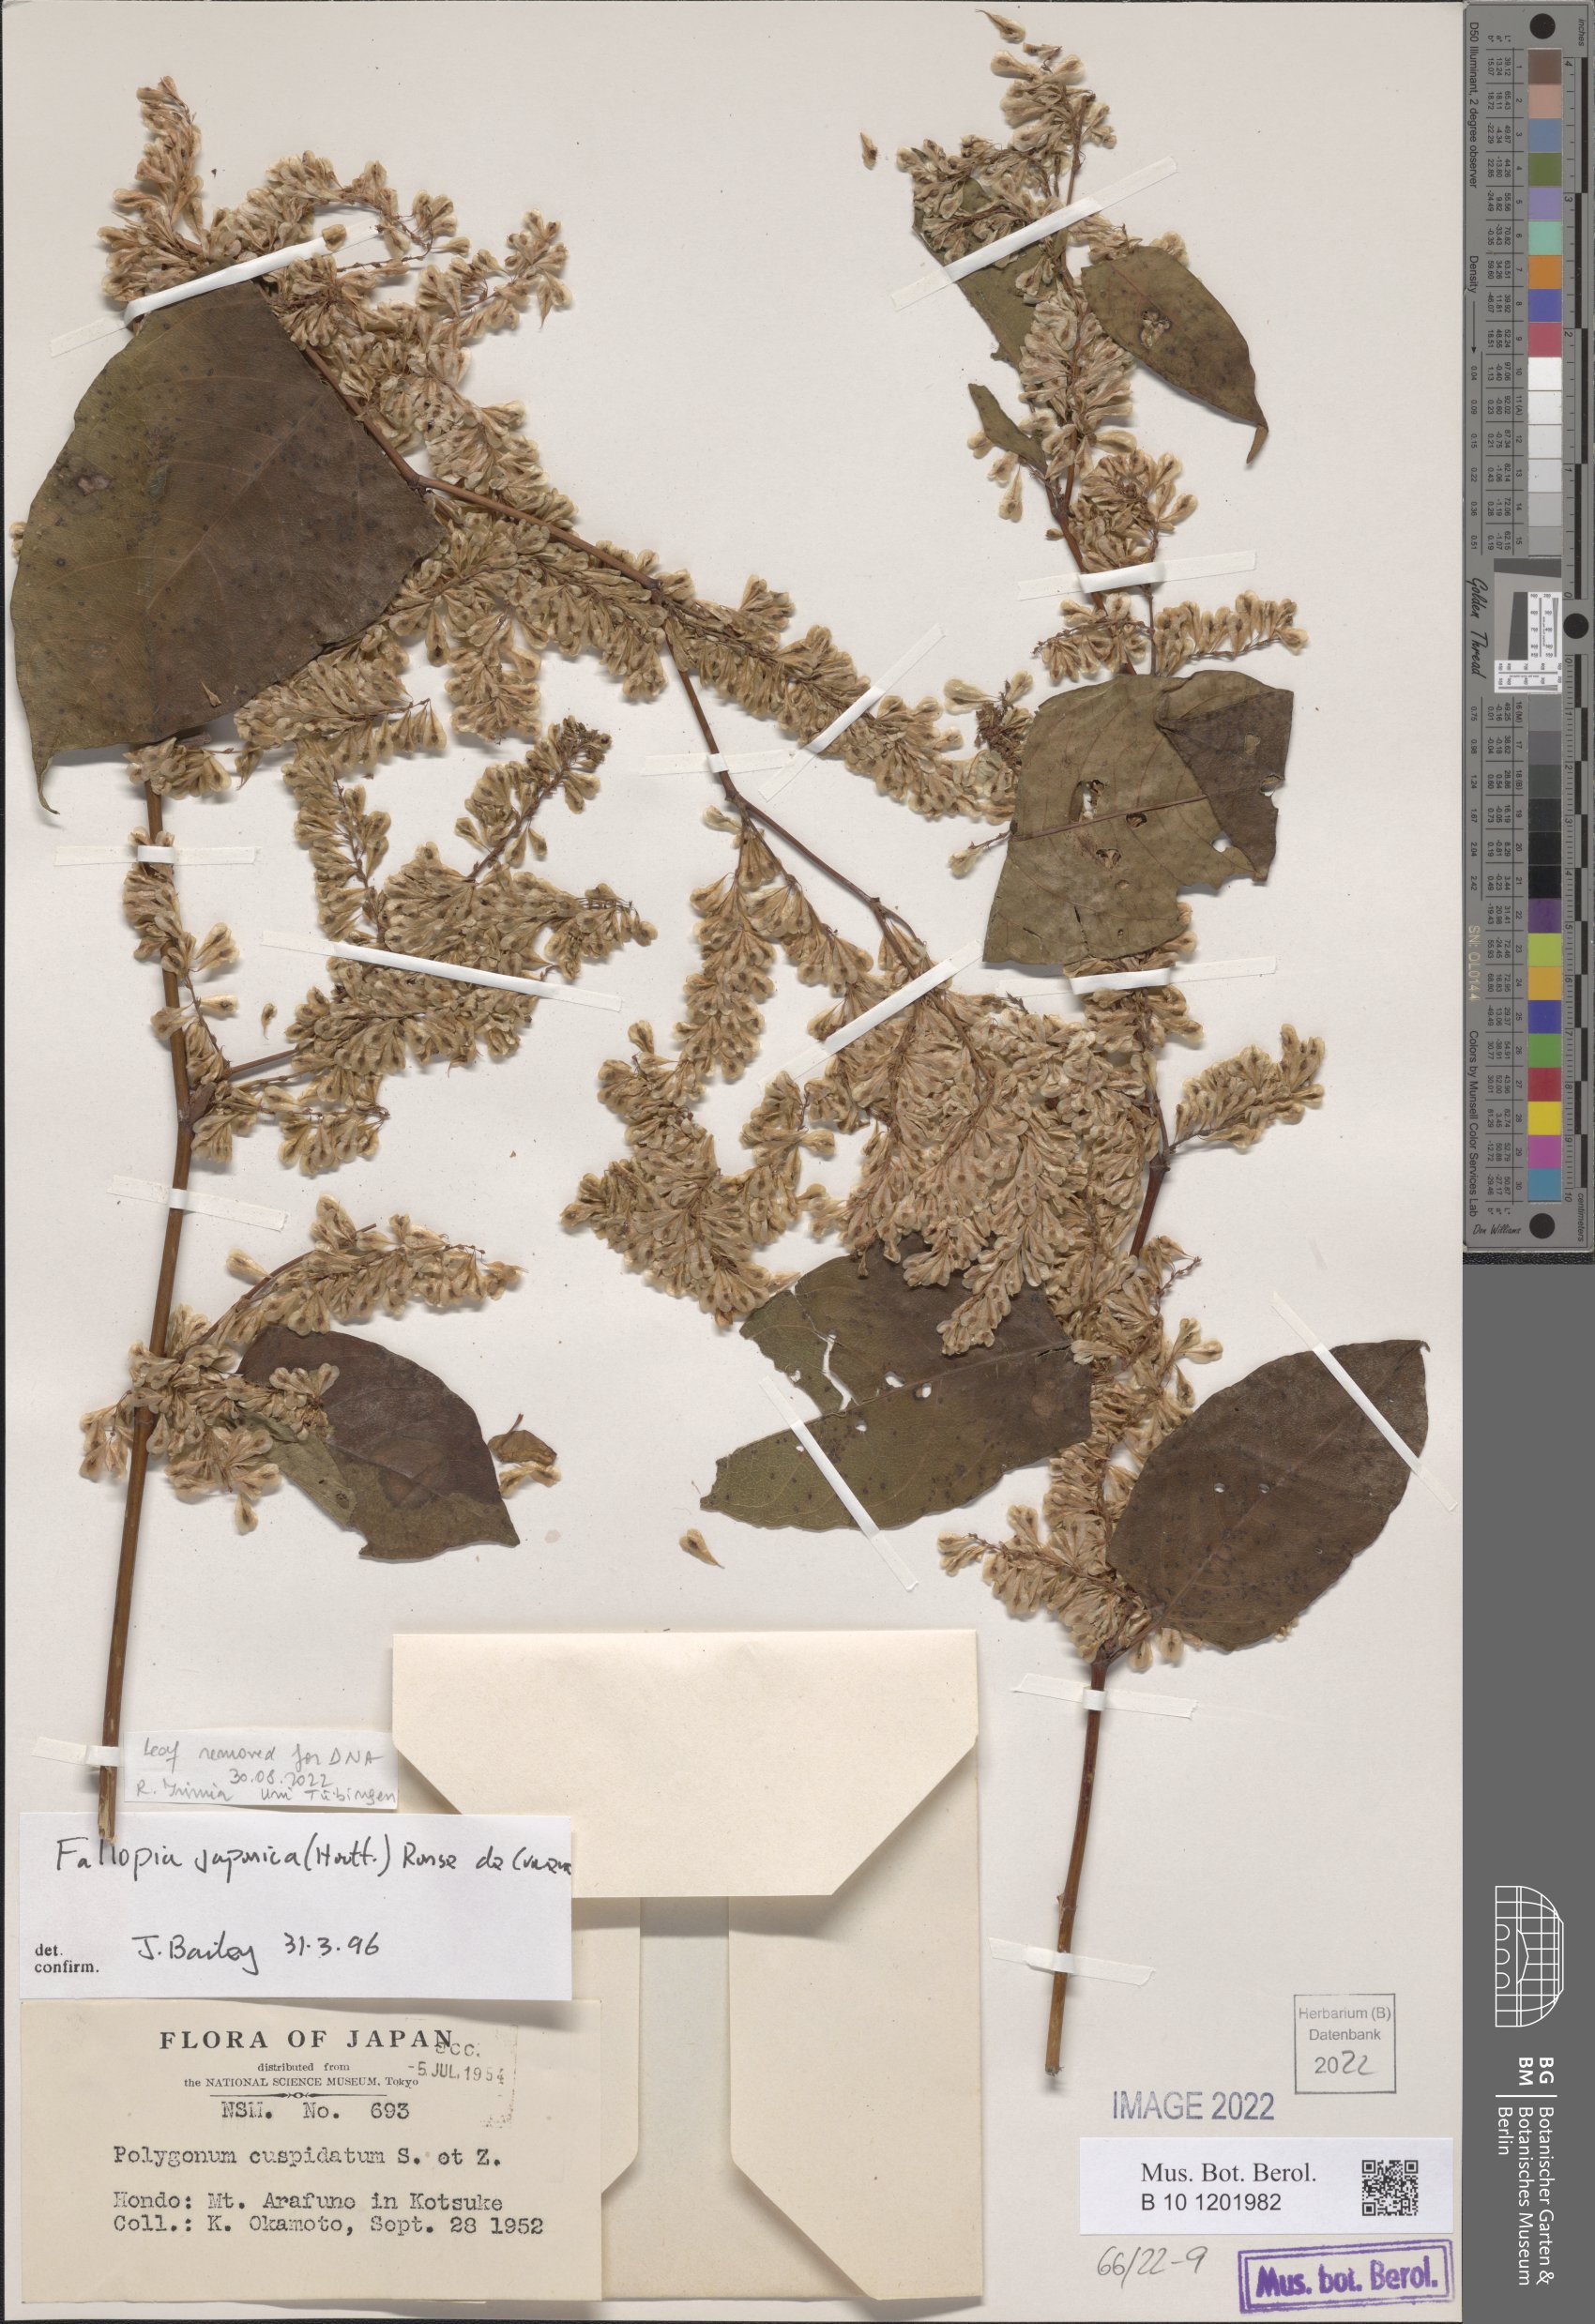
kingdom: Plantae
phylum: Tracheophyta
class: Magnoliopsida
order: Caryophyllales
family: Polygonaceae
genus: Reynoutria
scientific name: Reynoutria japonica
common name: Japanese knotweed
